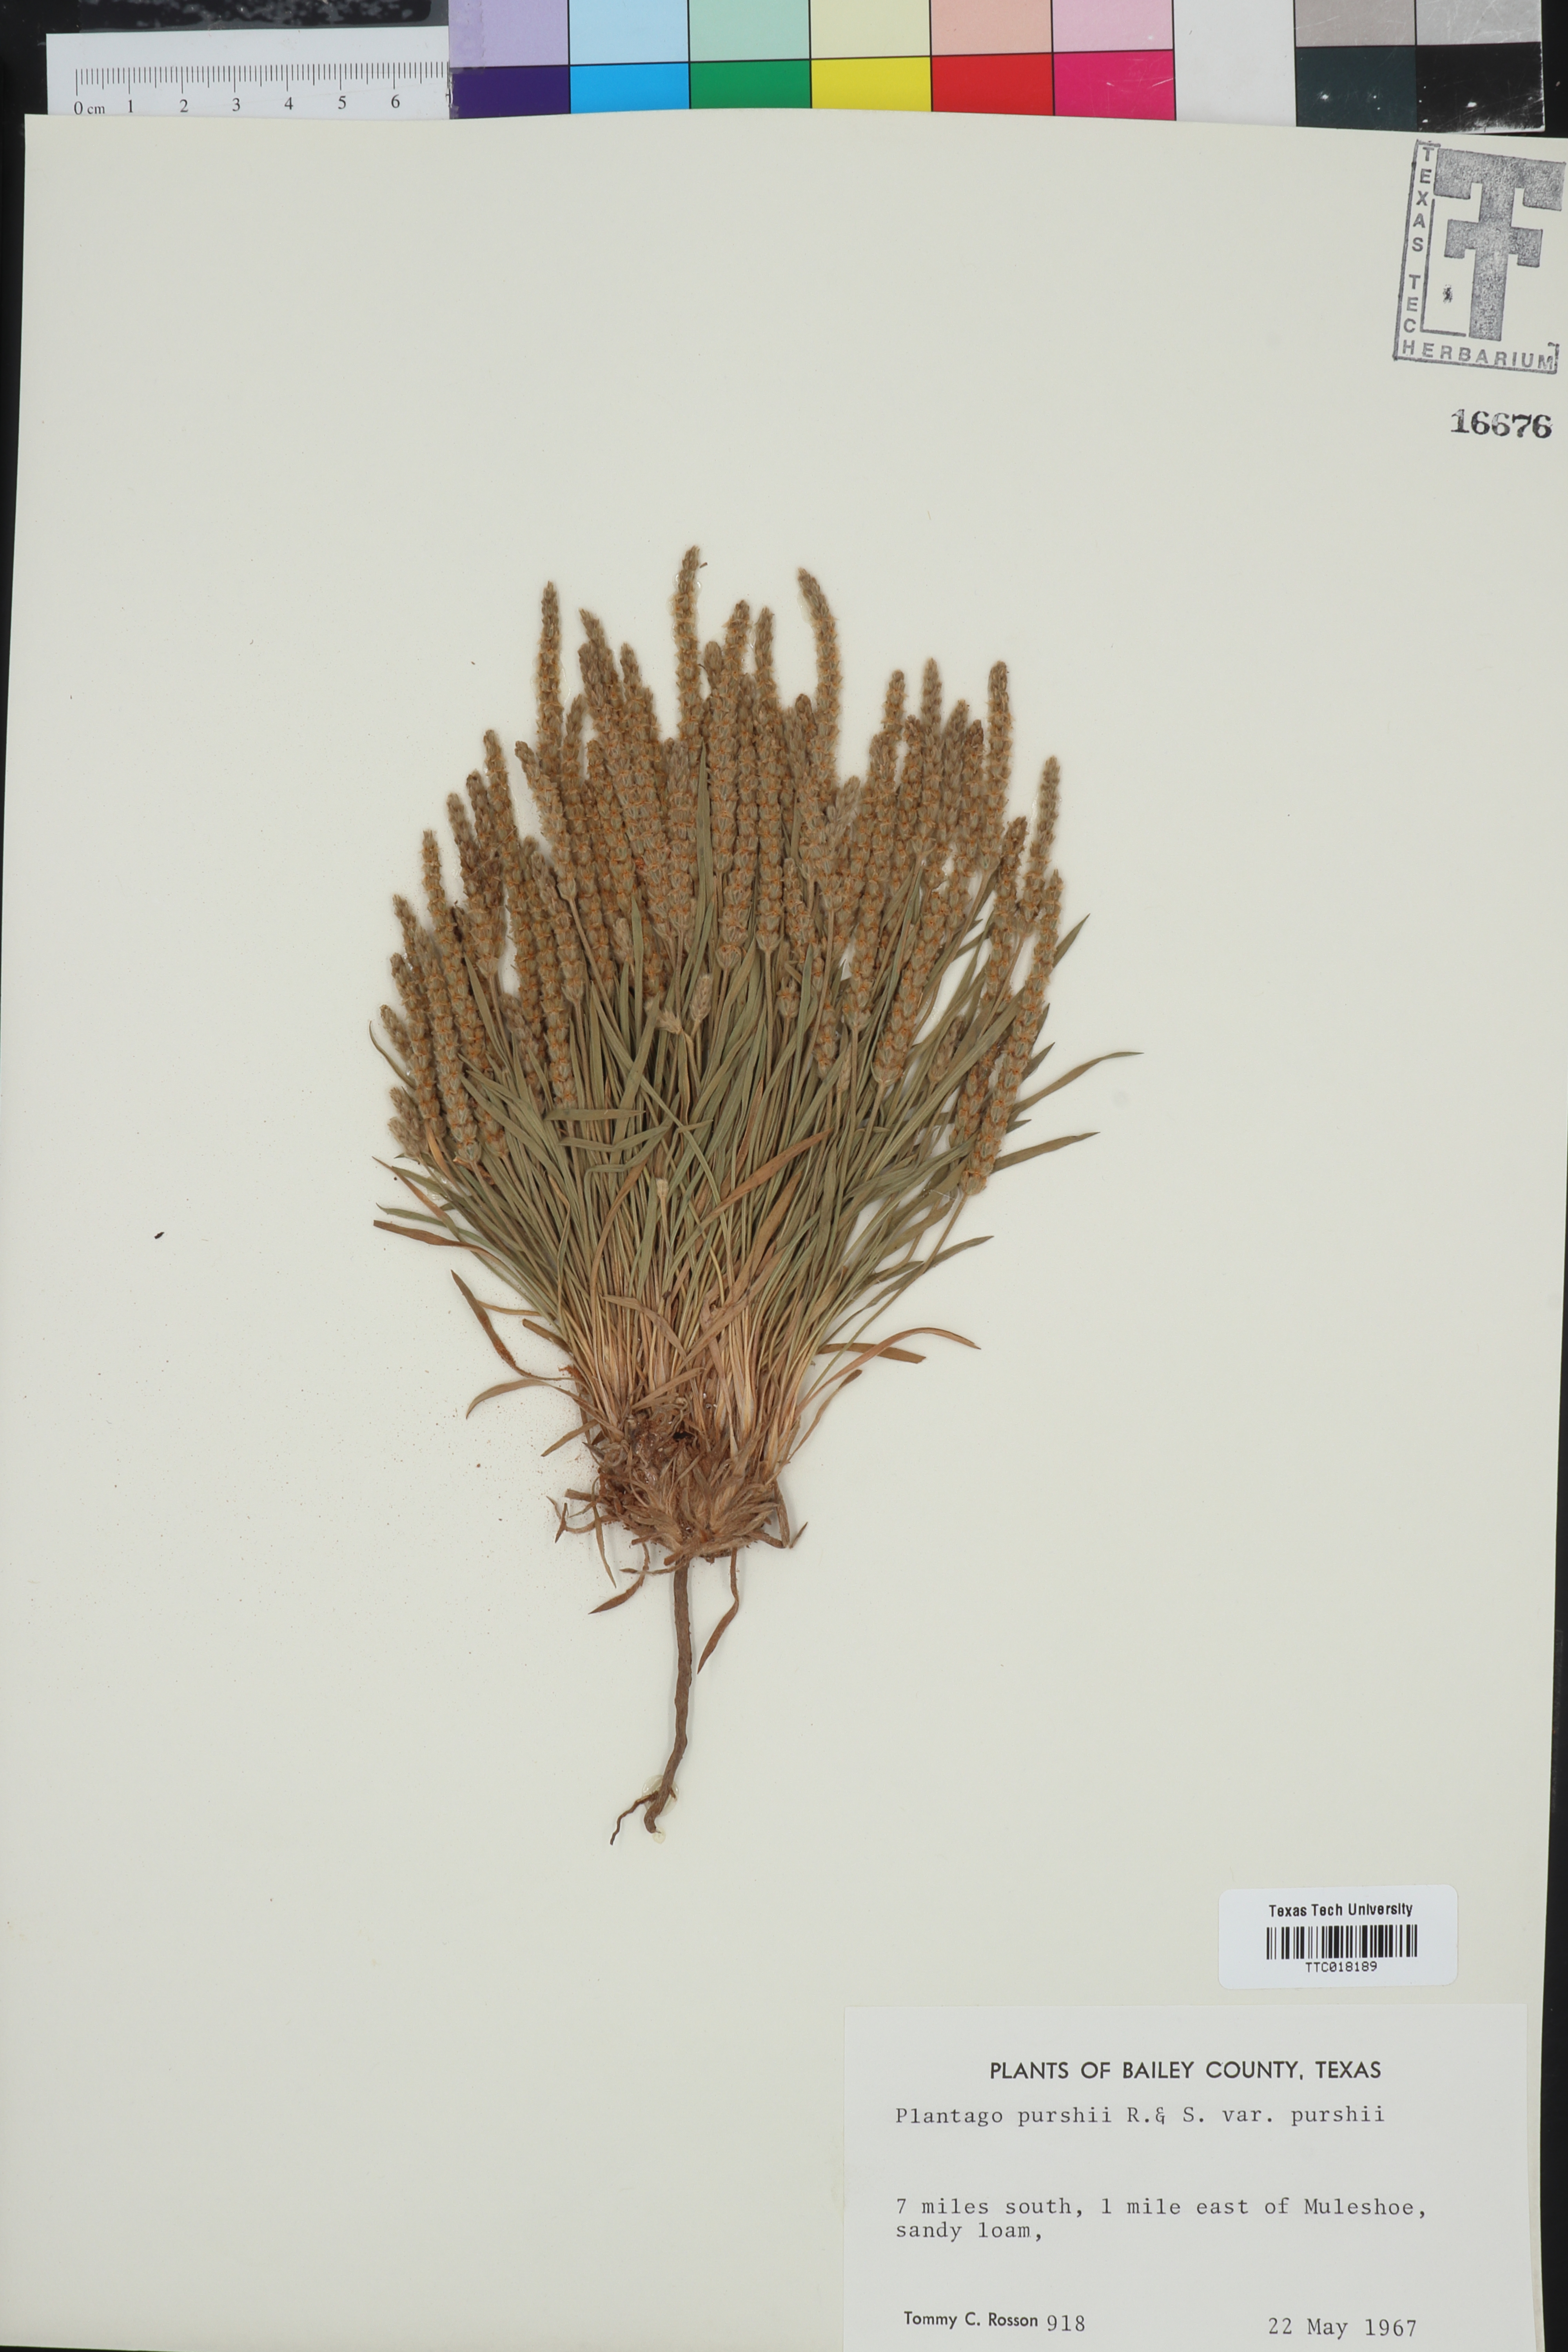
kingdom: Plantae
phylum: Tracheophyta
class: Magnoliopsida
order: Lamiales
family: Plantaginaceae
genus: Plantago
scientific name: Plantago patagonica
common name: Patagonia indian-wheat
